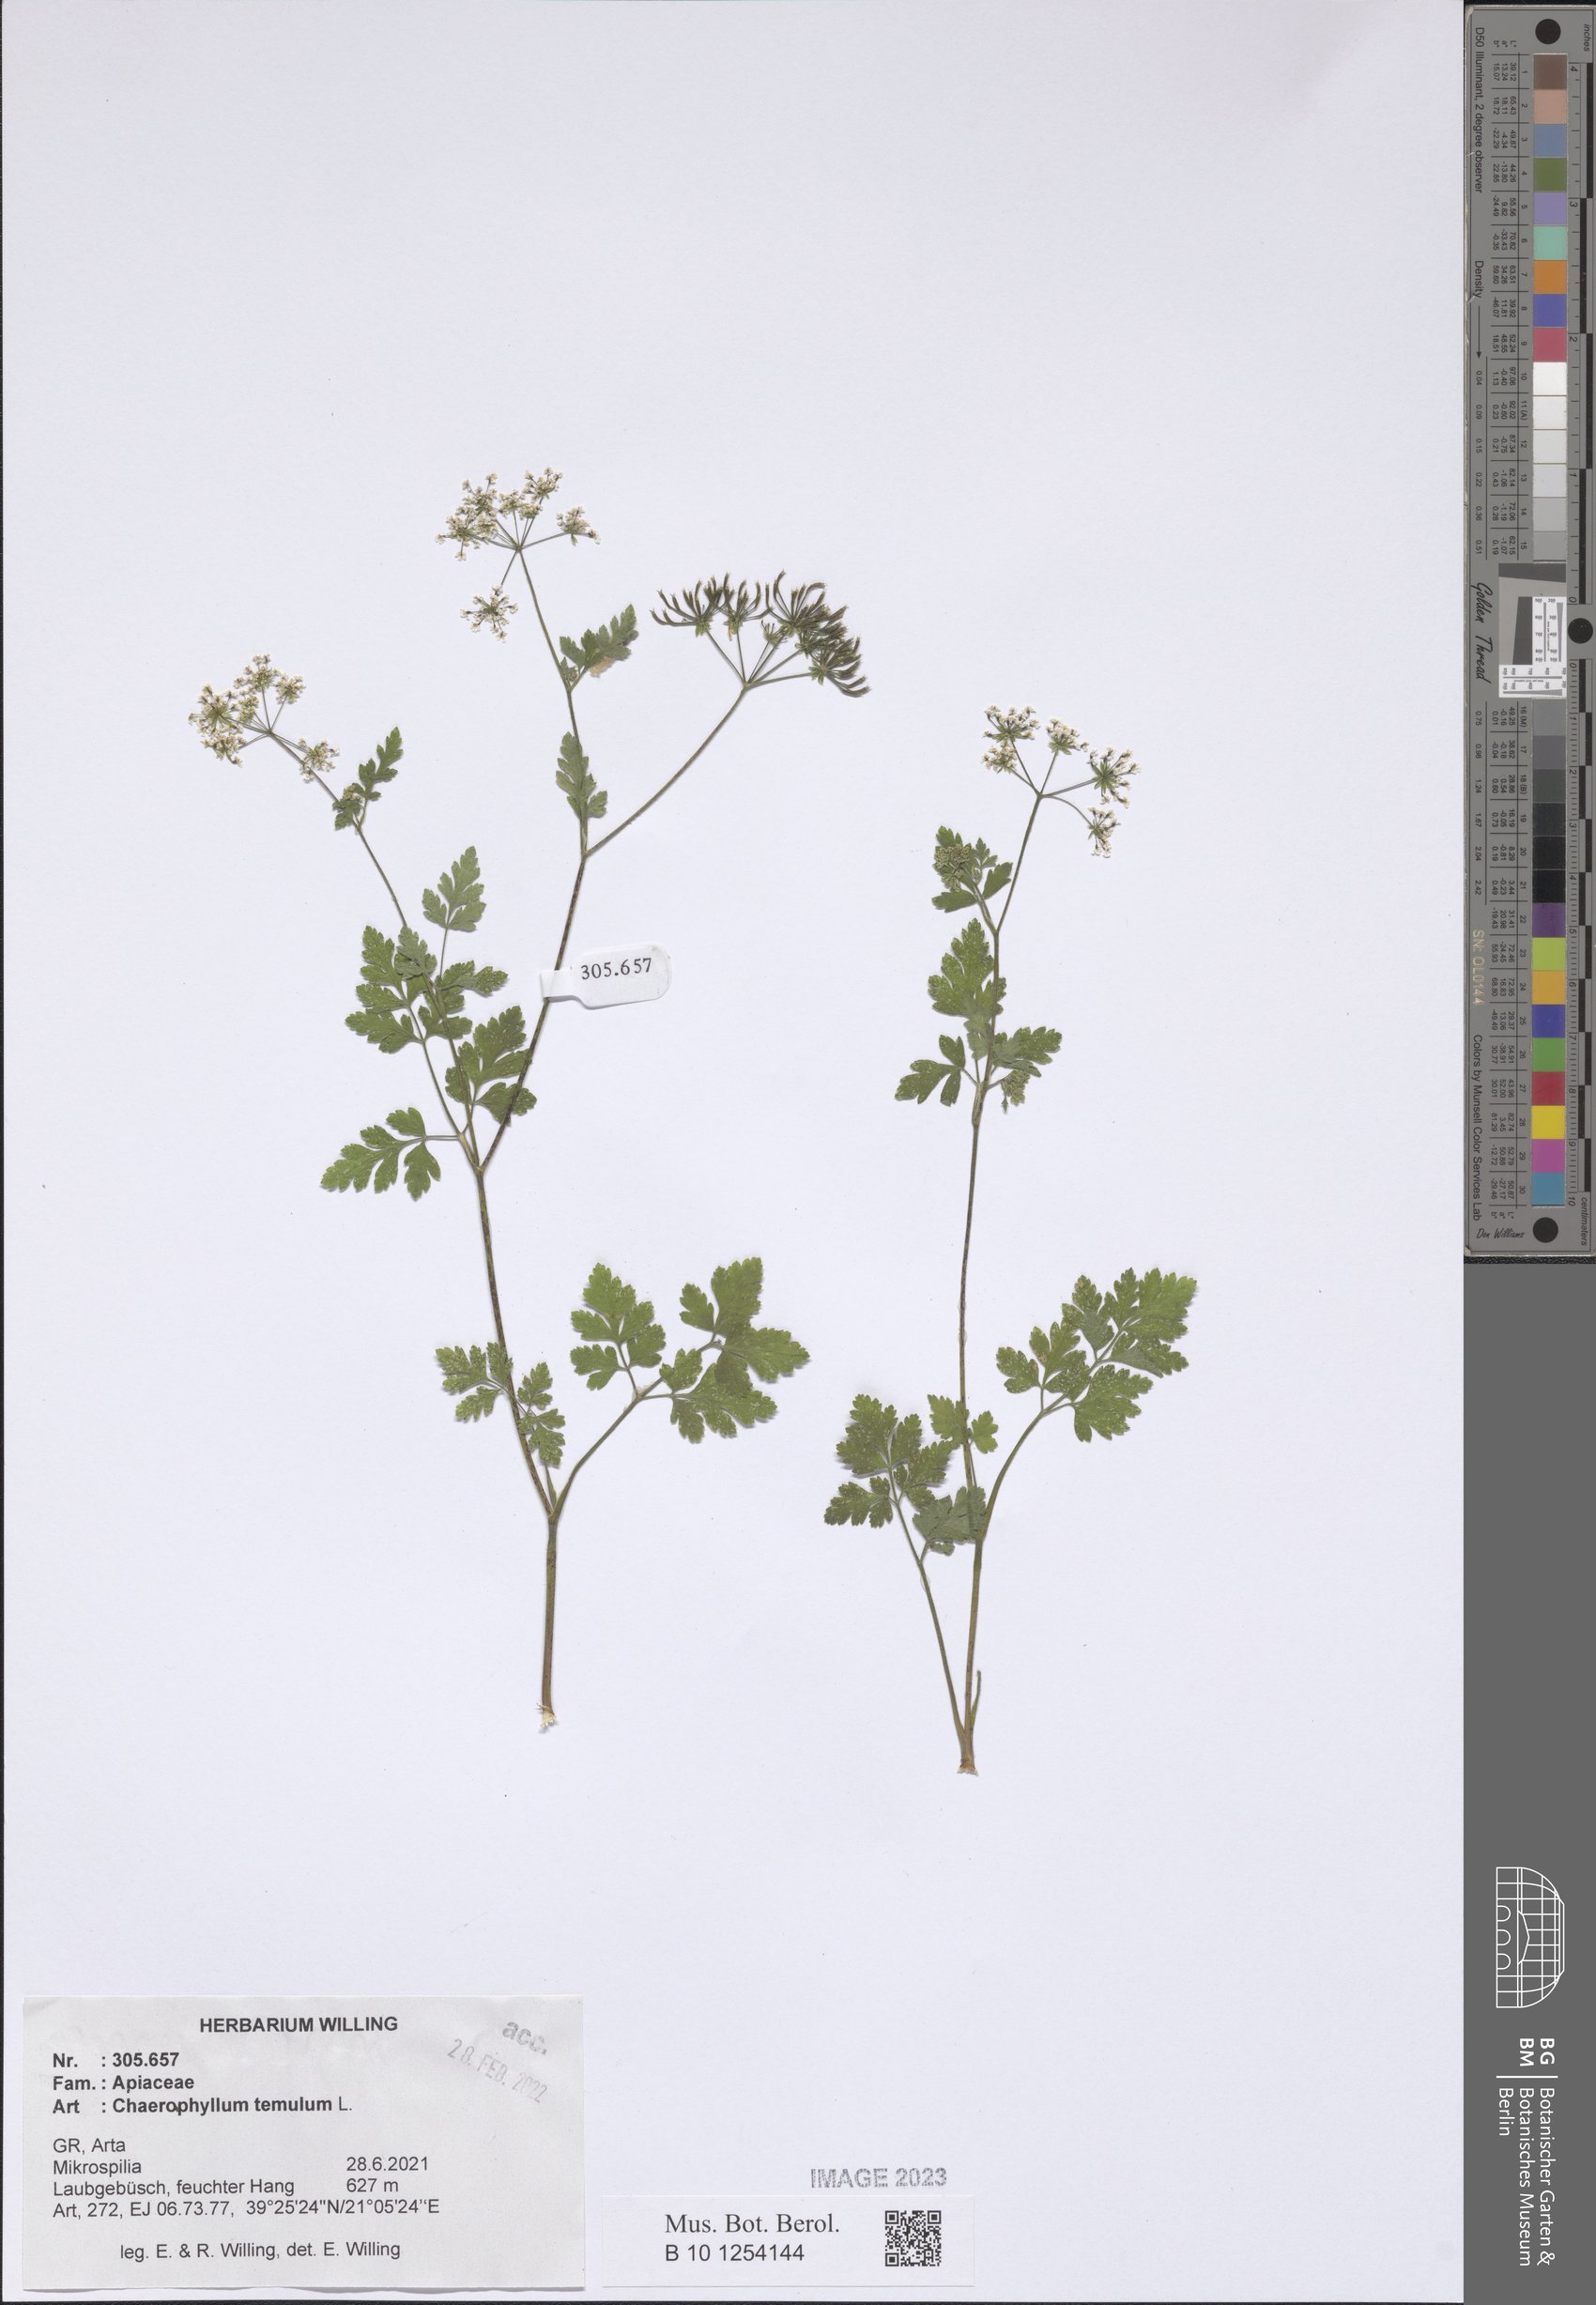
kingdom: Plantae
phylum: Tracheophyta
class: Magnoliopsida
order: Apiales
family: Apiaceae
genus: Chaerophyllum
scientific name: Chaerophyllum temulum
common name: Rough chervil
